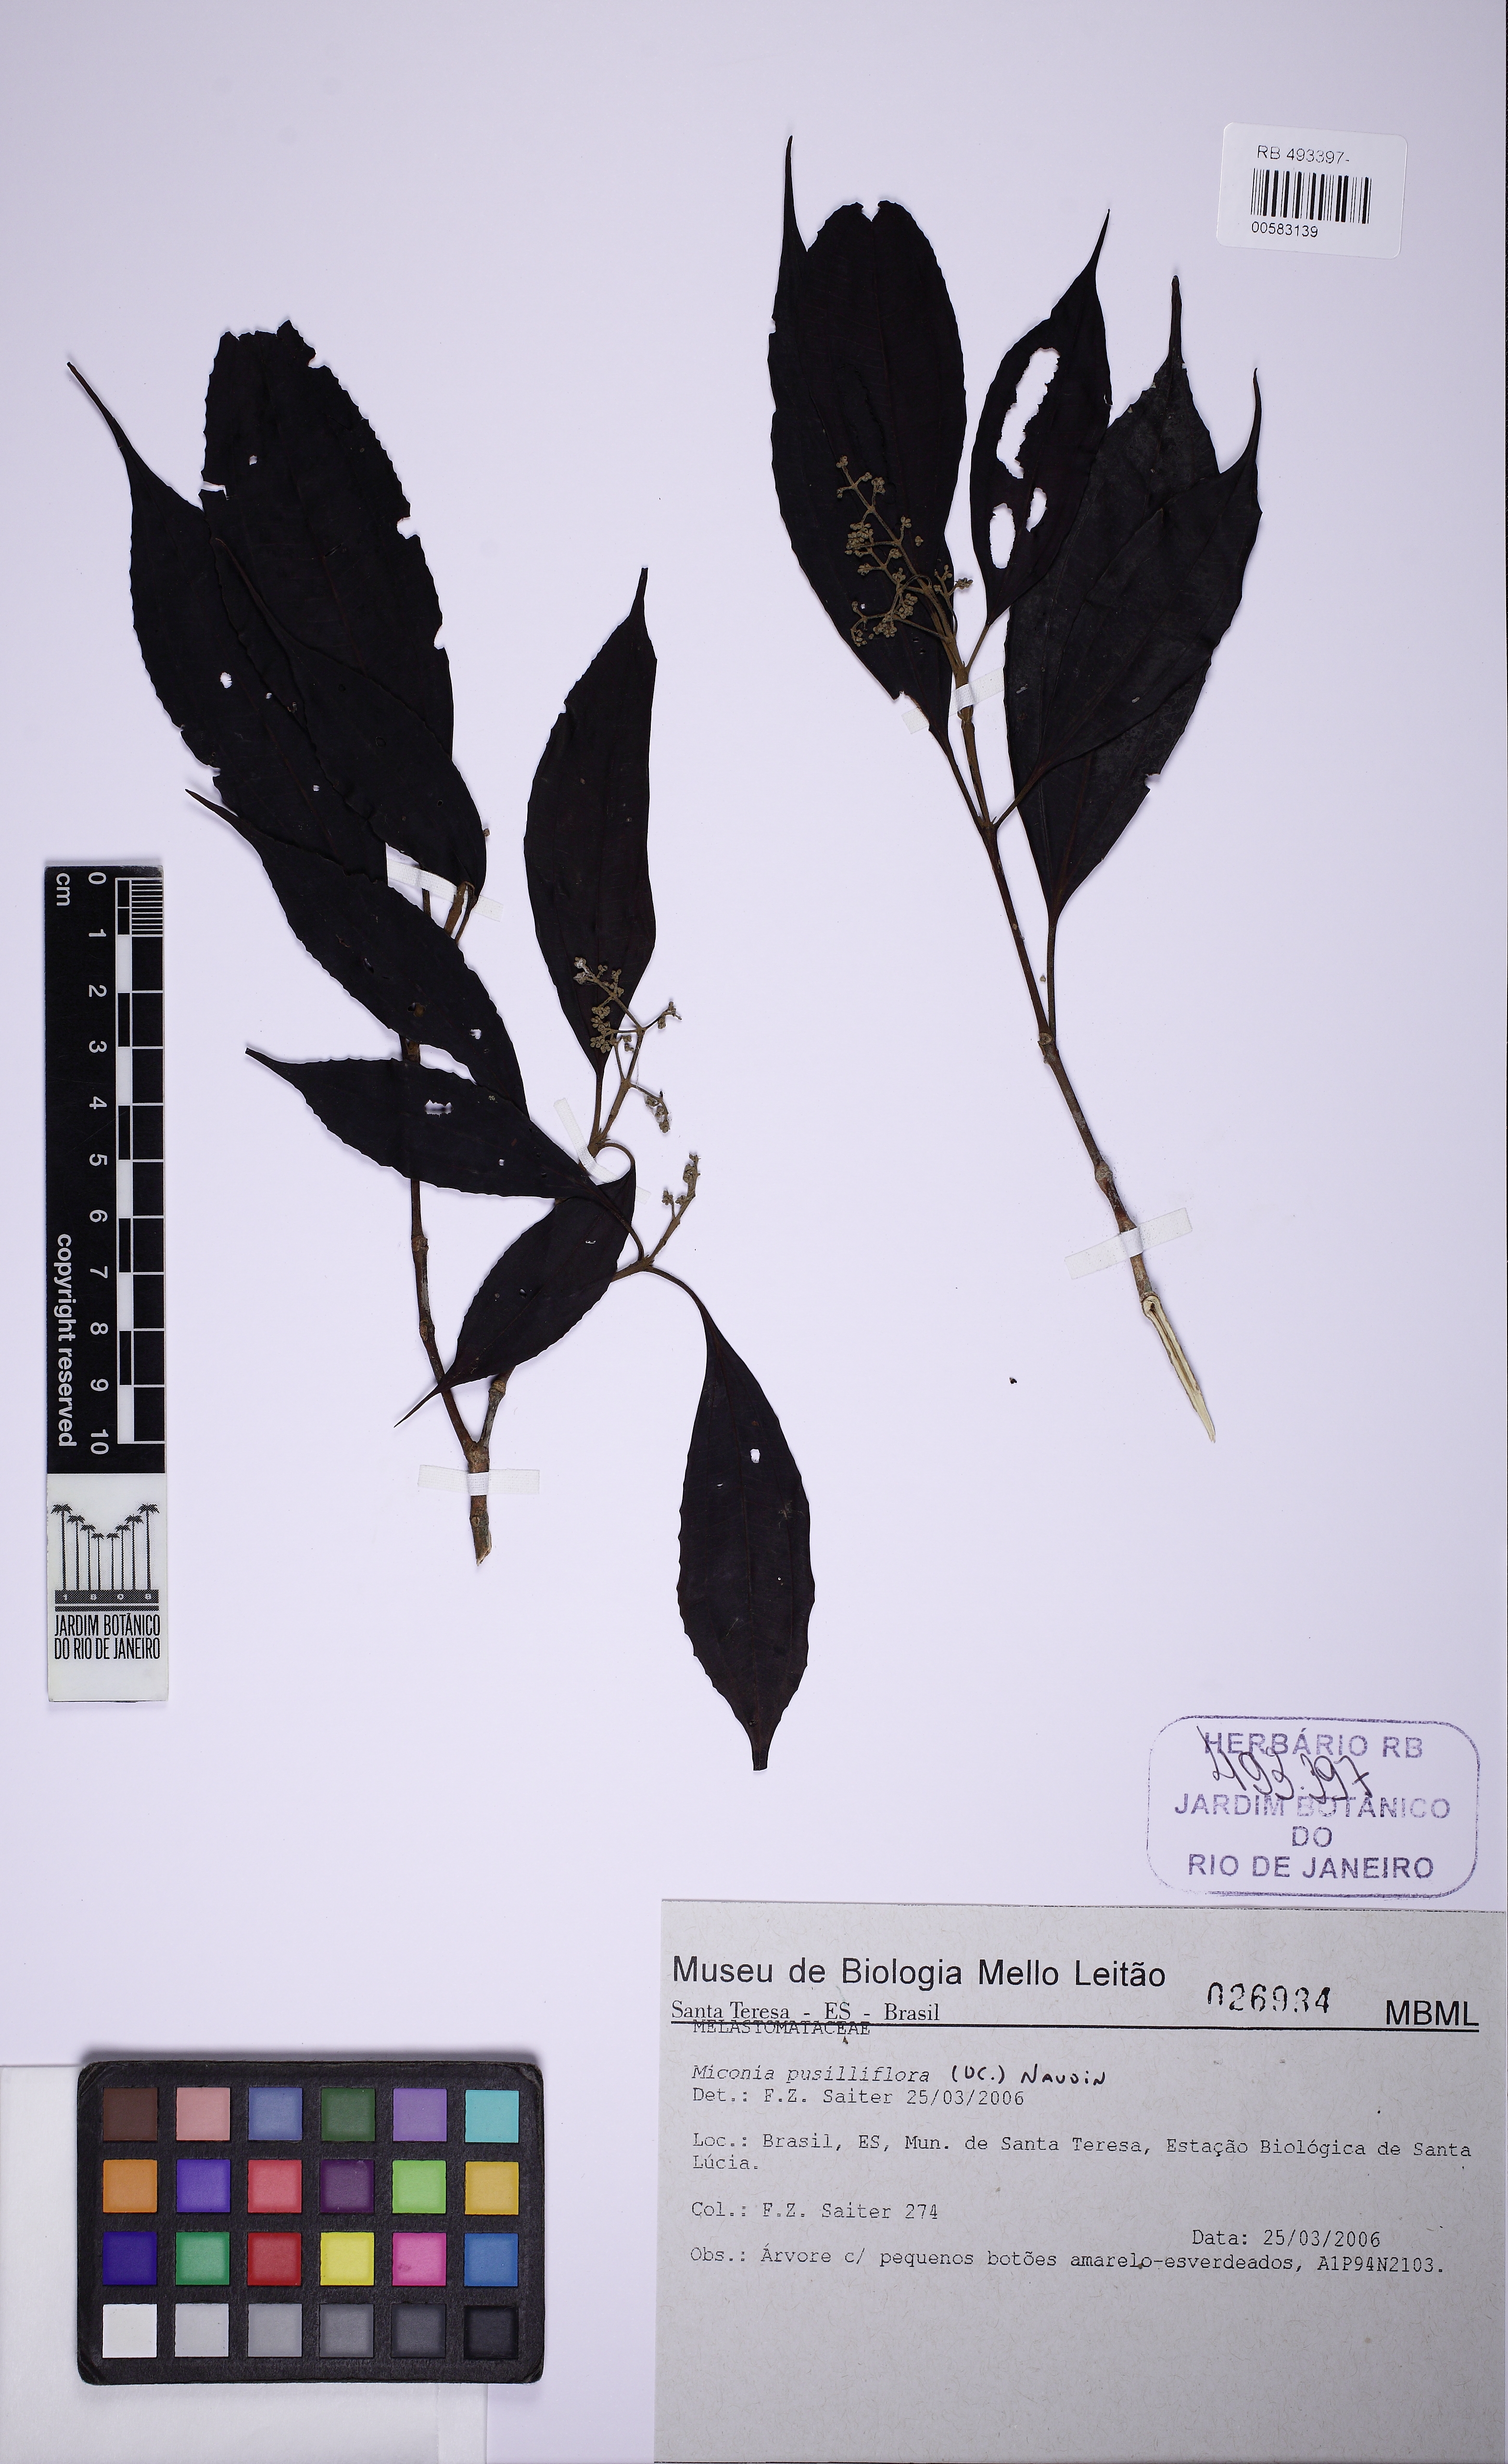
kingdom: Plantae
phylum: Tracheophyta
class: Magnoliopsida
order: Myrtales
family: Melastomataceae
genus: Miconia
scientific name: Miconia pusilliflora
